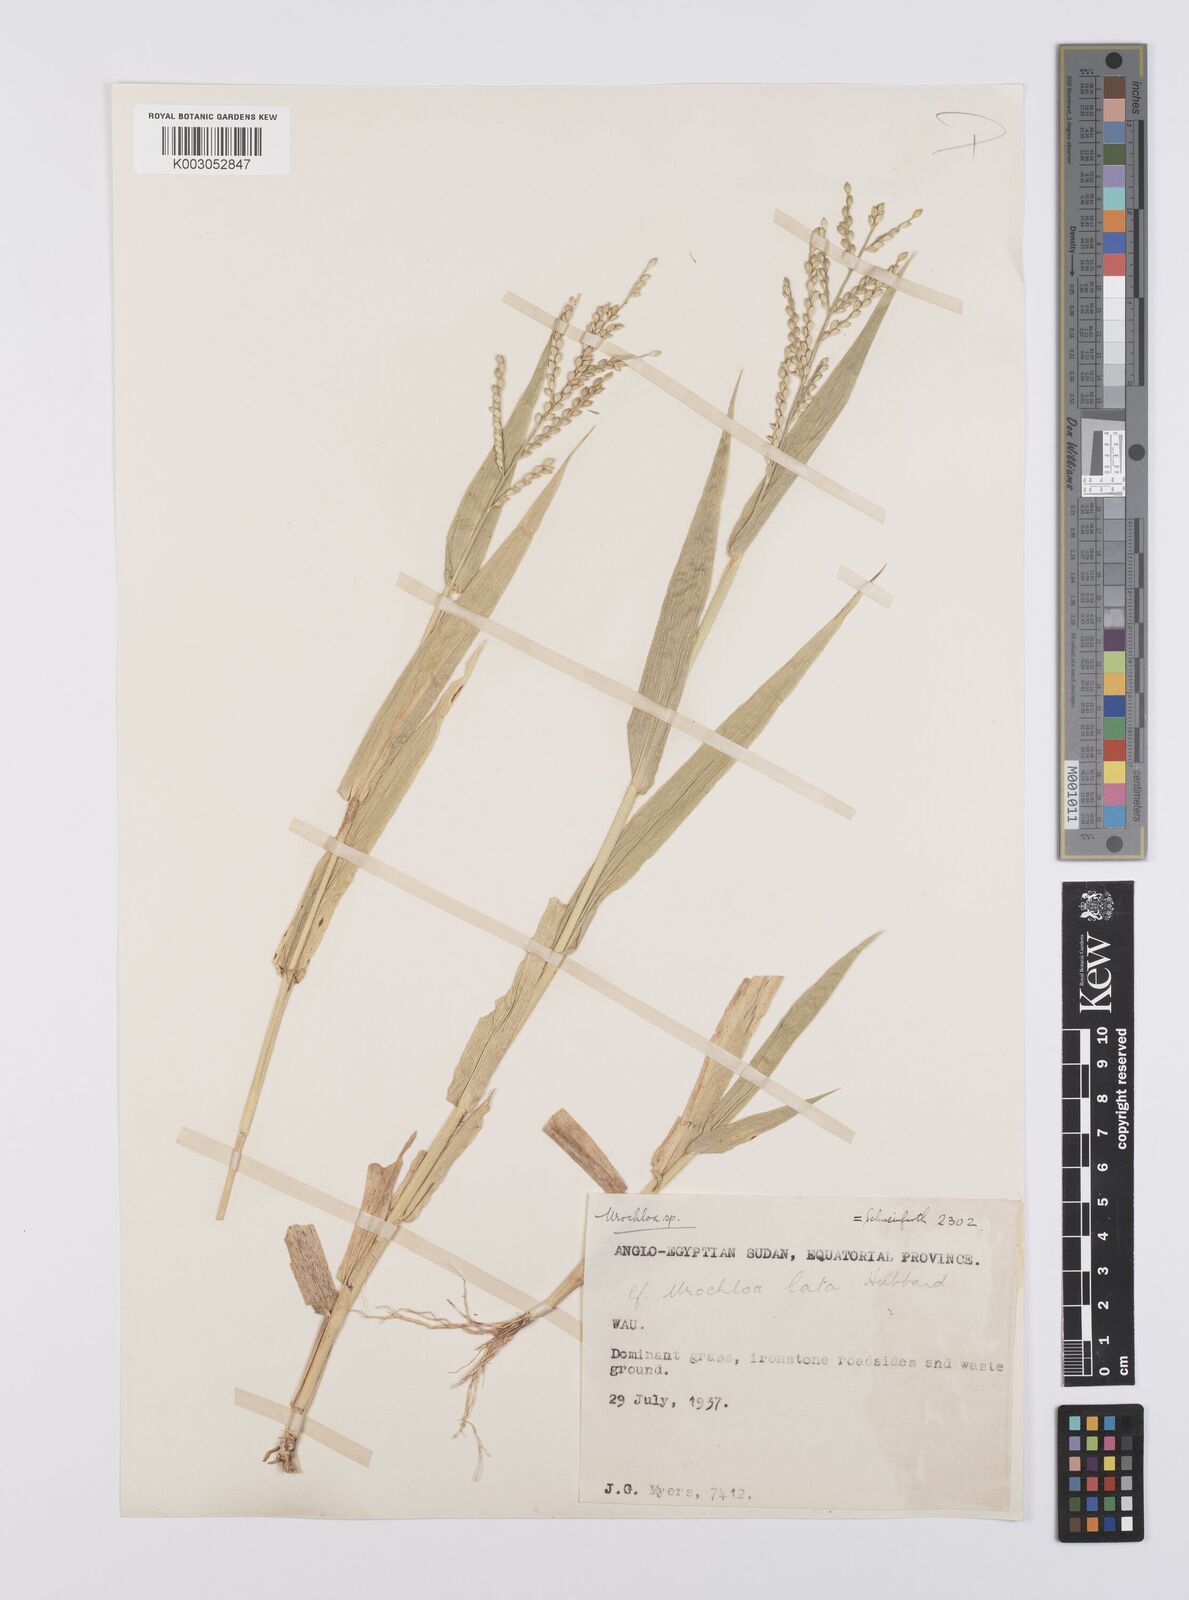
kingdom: Plantae
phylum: Tracheophyta
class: Liliopsida
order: Poales
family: Poaceae
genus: Urochloa
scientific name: Urochloa lata
